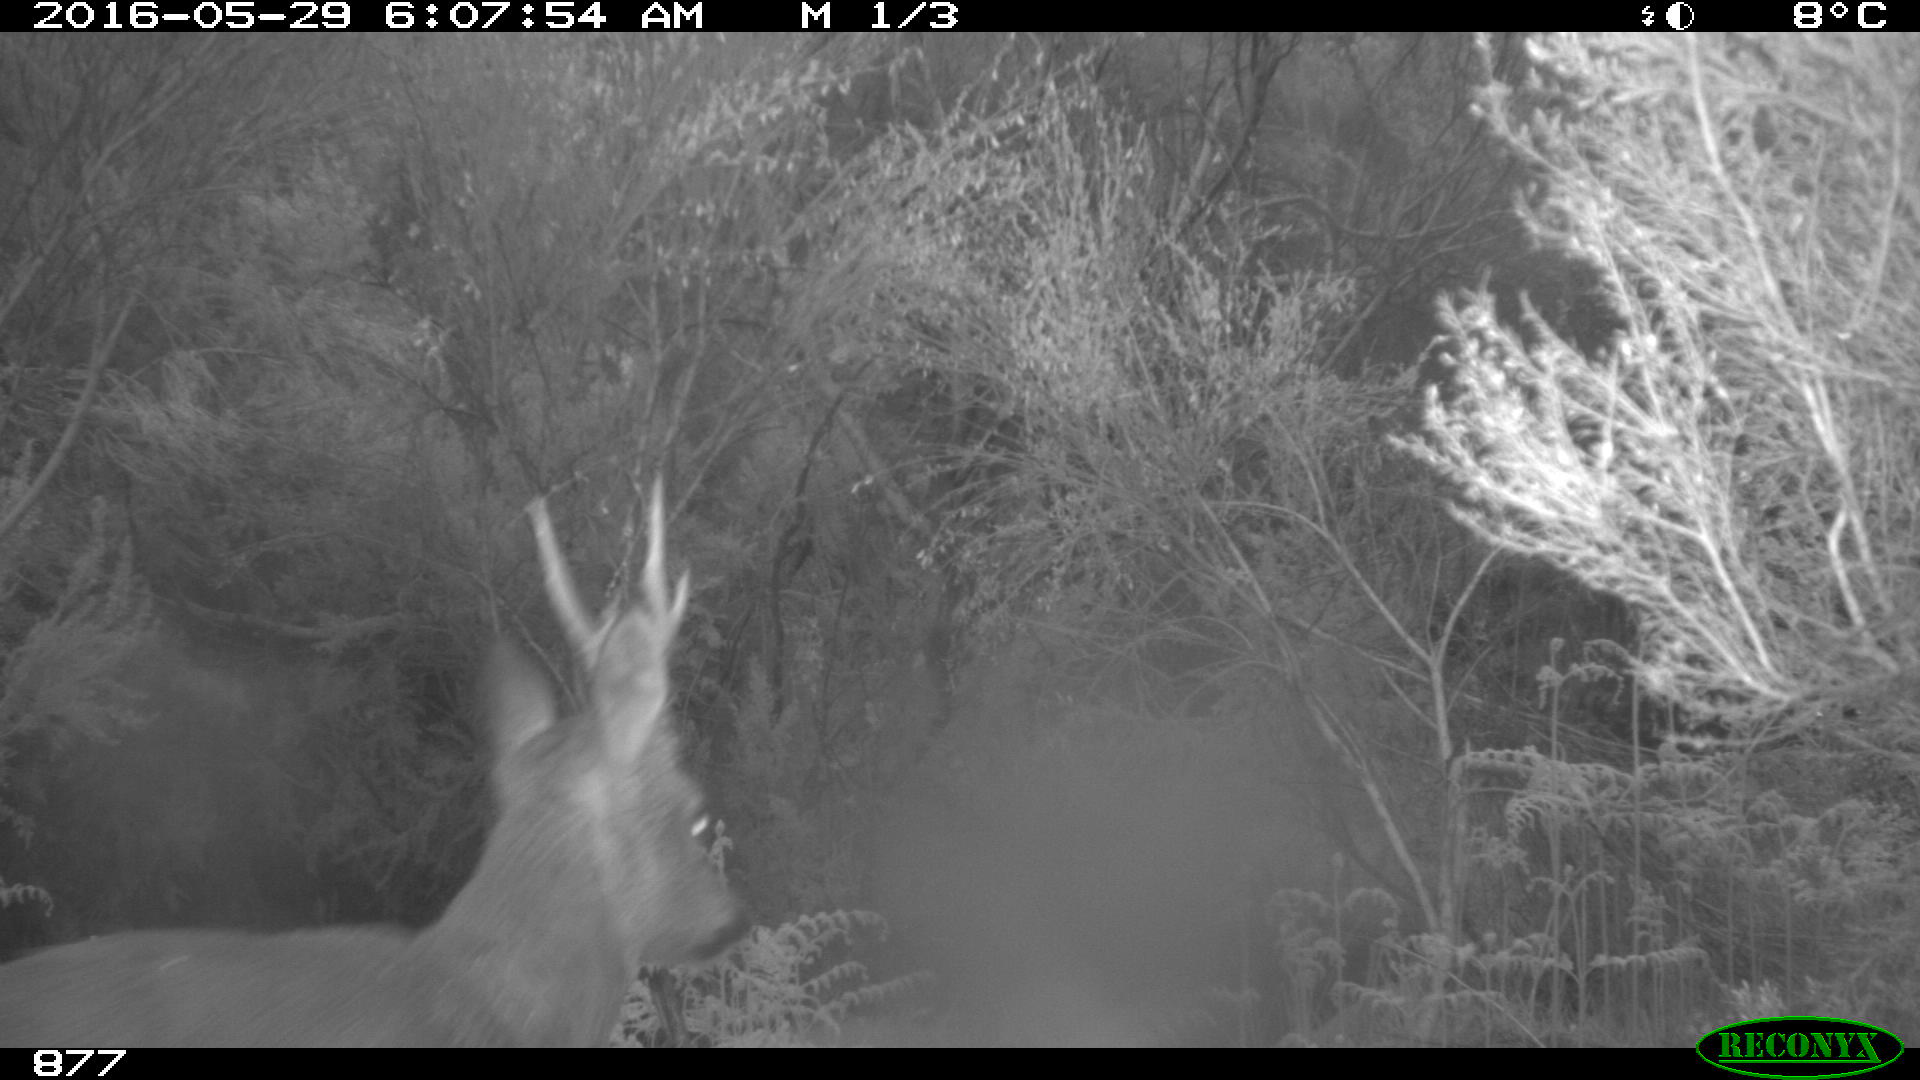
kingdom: Animalia
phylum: Chordata
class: Mammalia
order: Artiodactyla
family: Cervidae
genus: Capreolus
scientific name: Capreolus capreolus
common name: Western roe deer
